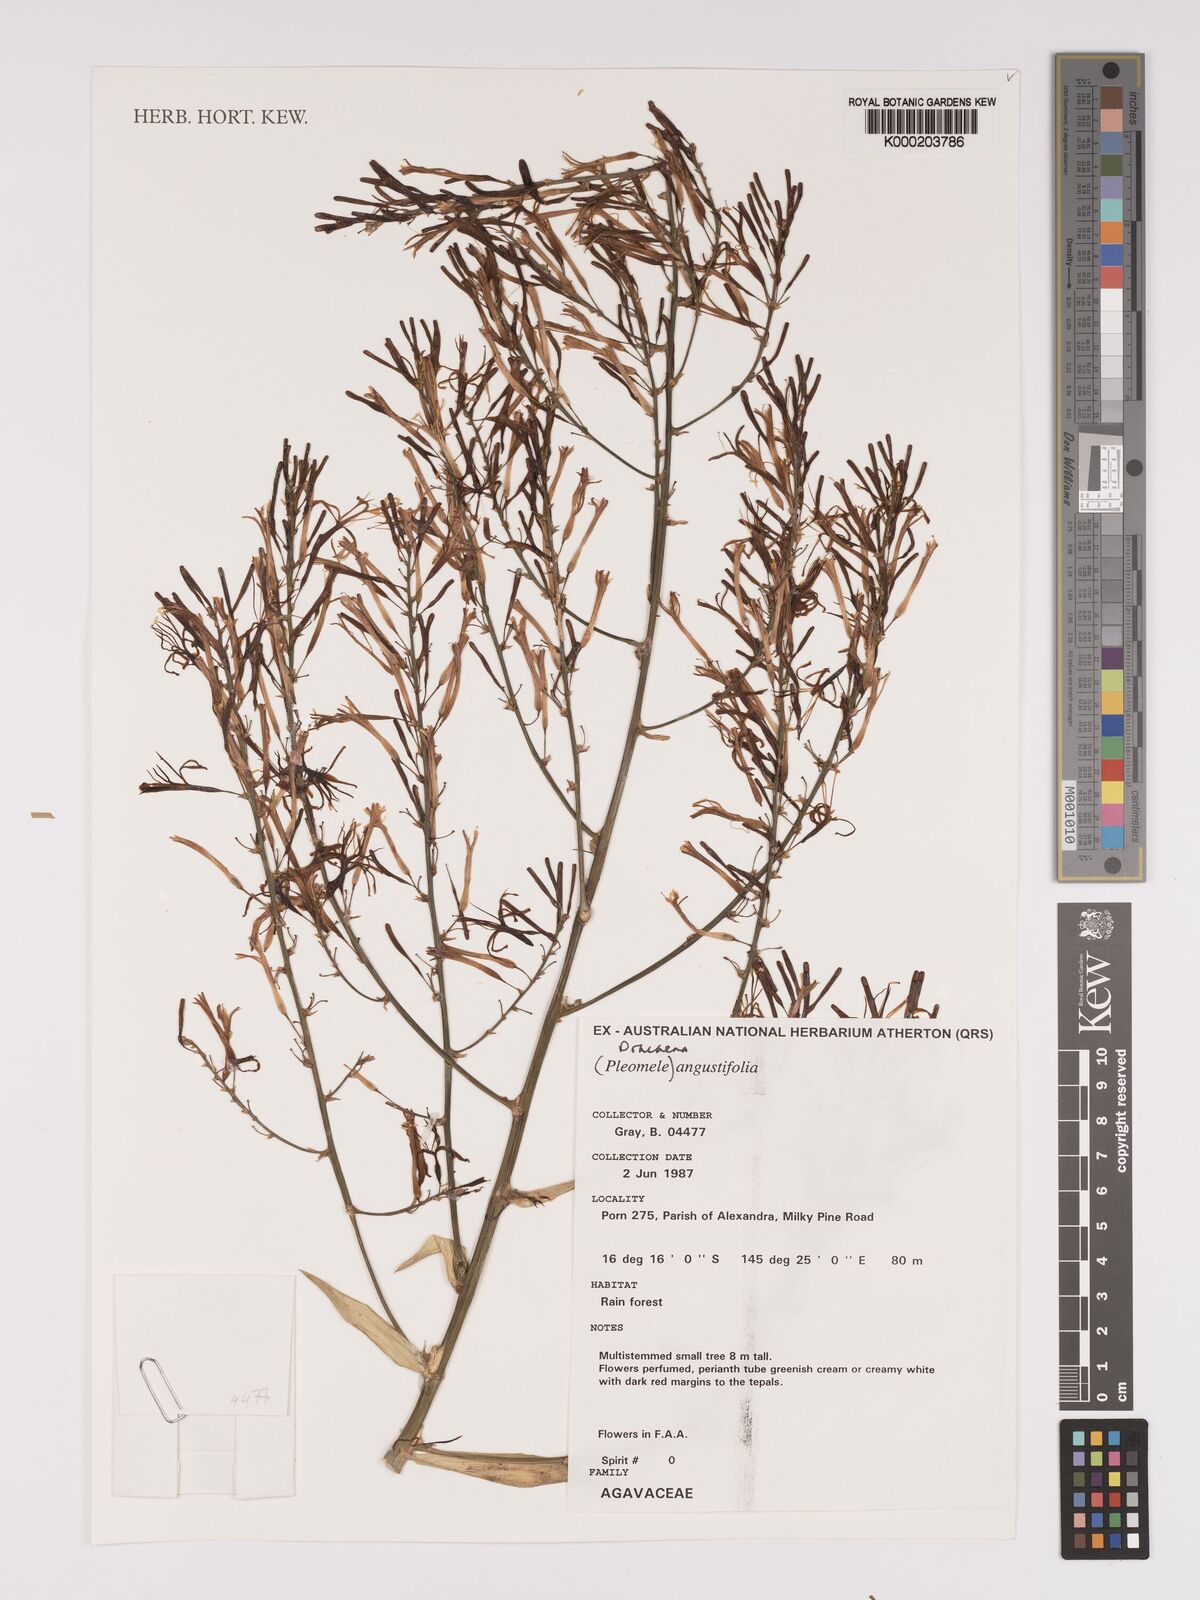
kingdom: Plantae
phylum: Tracheophyta
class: Liliopsida
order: Asparagales
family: Asparagaceae
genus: Dracaena
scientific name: Dracaena angustifolia
